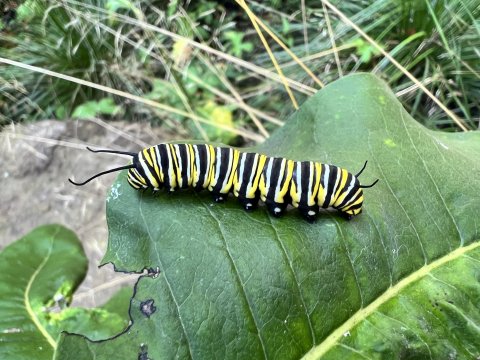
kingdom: Animalia
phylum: Arthropoda
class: Insecta
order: Lepidoptera
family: Nymphalidae
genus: Danaus
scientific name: Danaus plexippus
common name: Monarch
